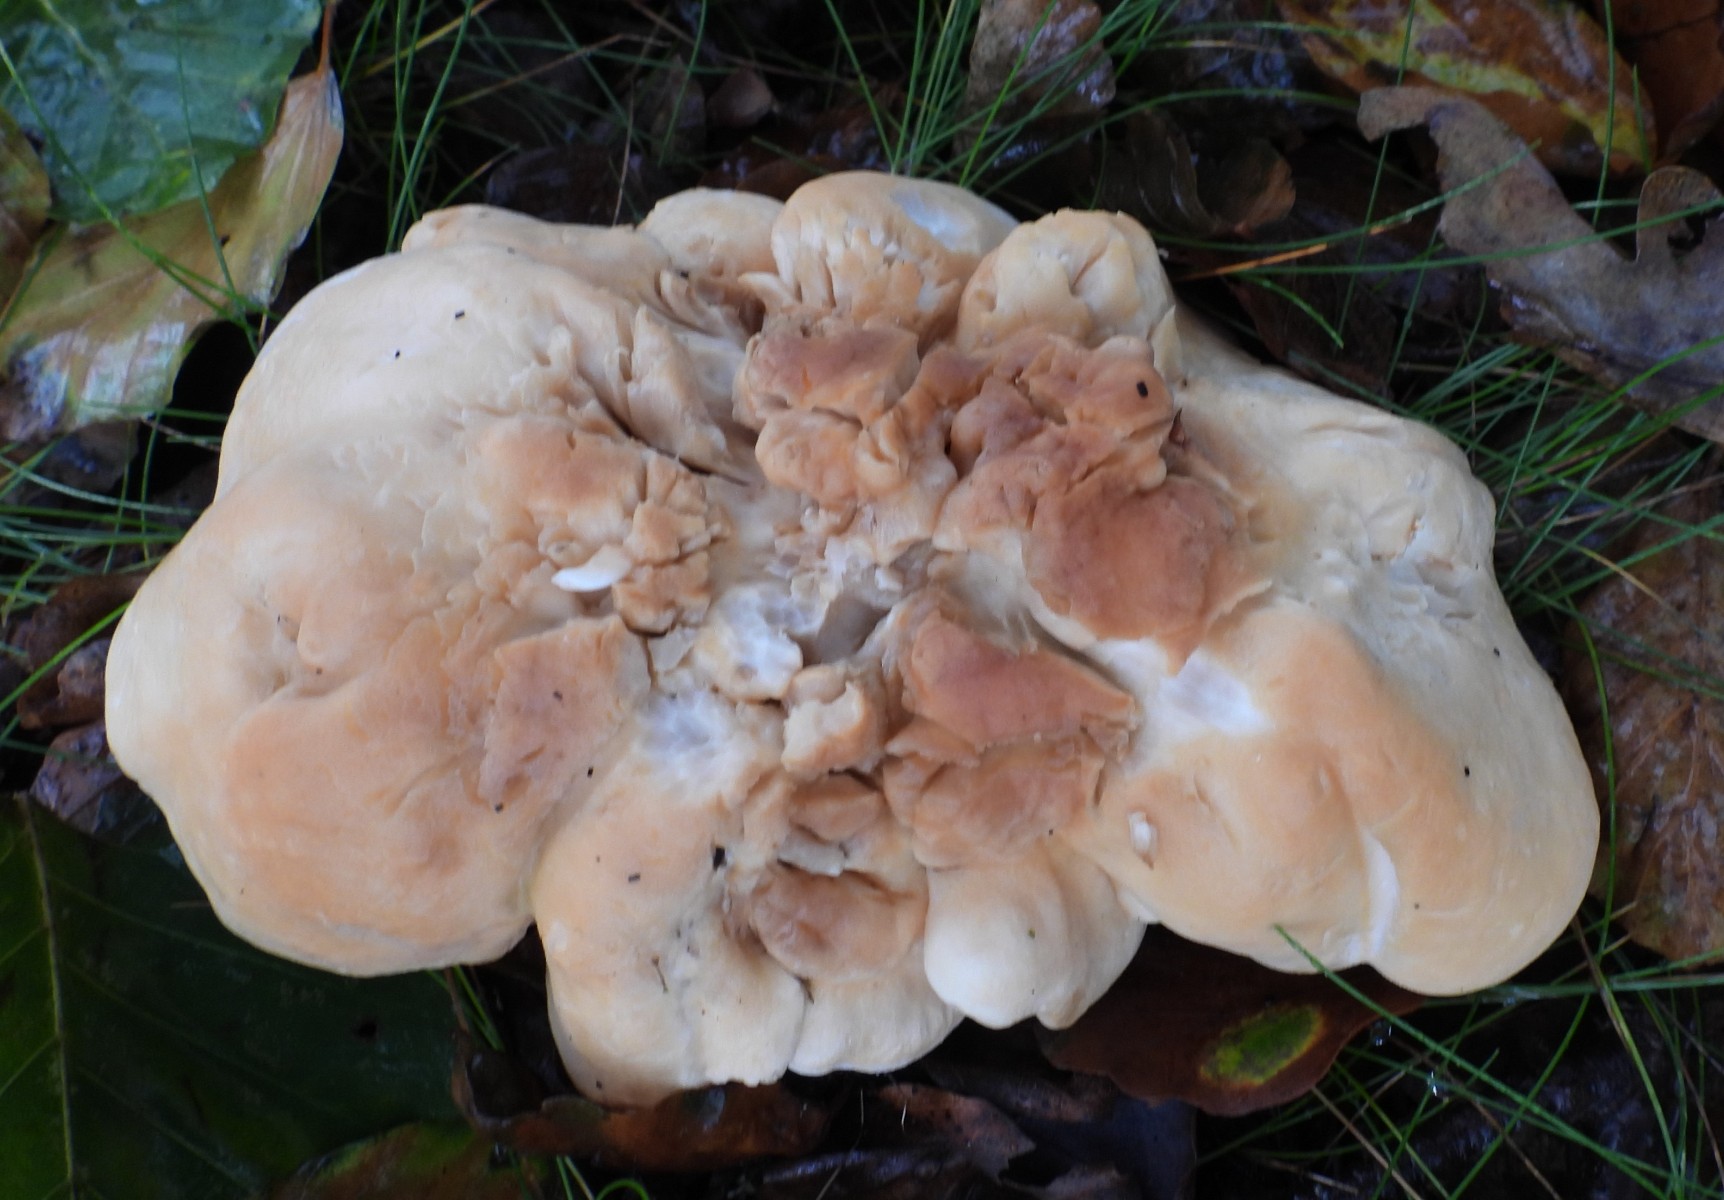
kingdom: Fungi
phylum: Basidiomycota
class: Agaricomycetes
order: Cantharellales
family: Hydnaceae
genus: Hydnum
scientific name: Hydnum repandum
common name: almindelig pigsvamp
